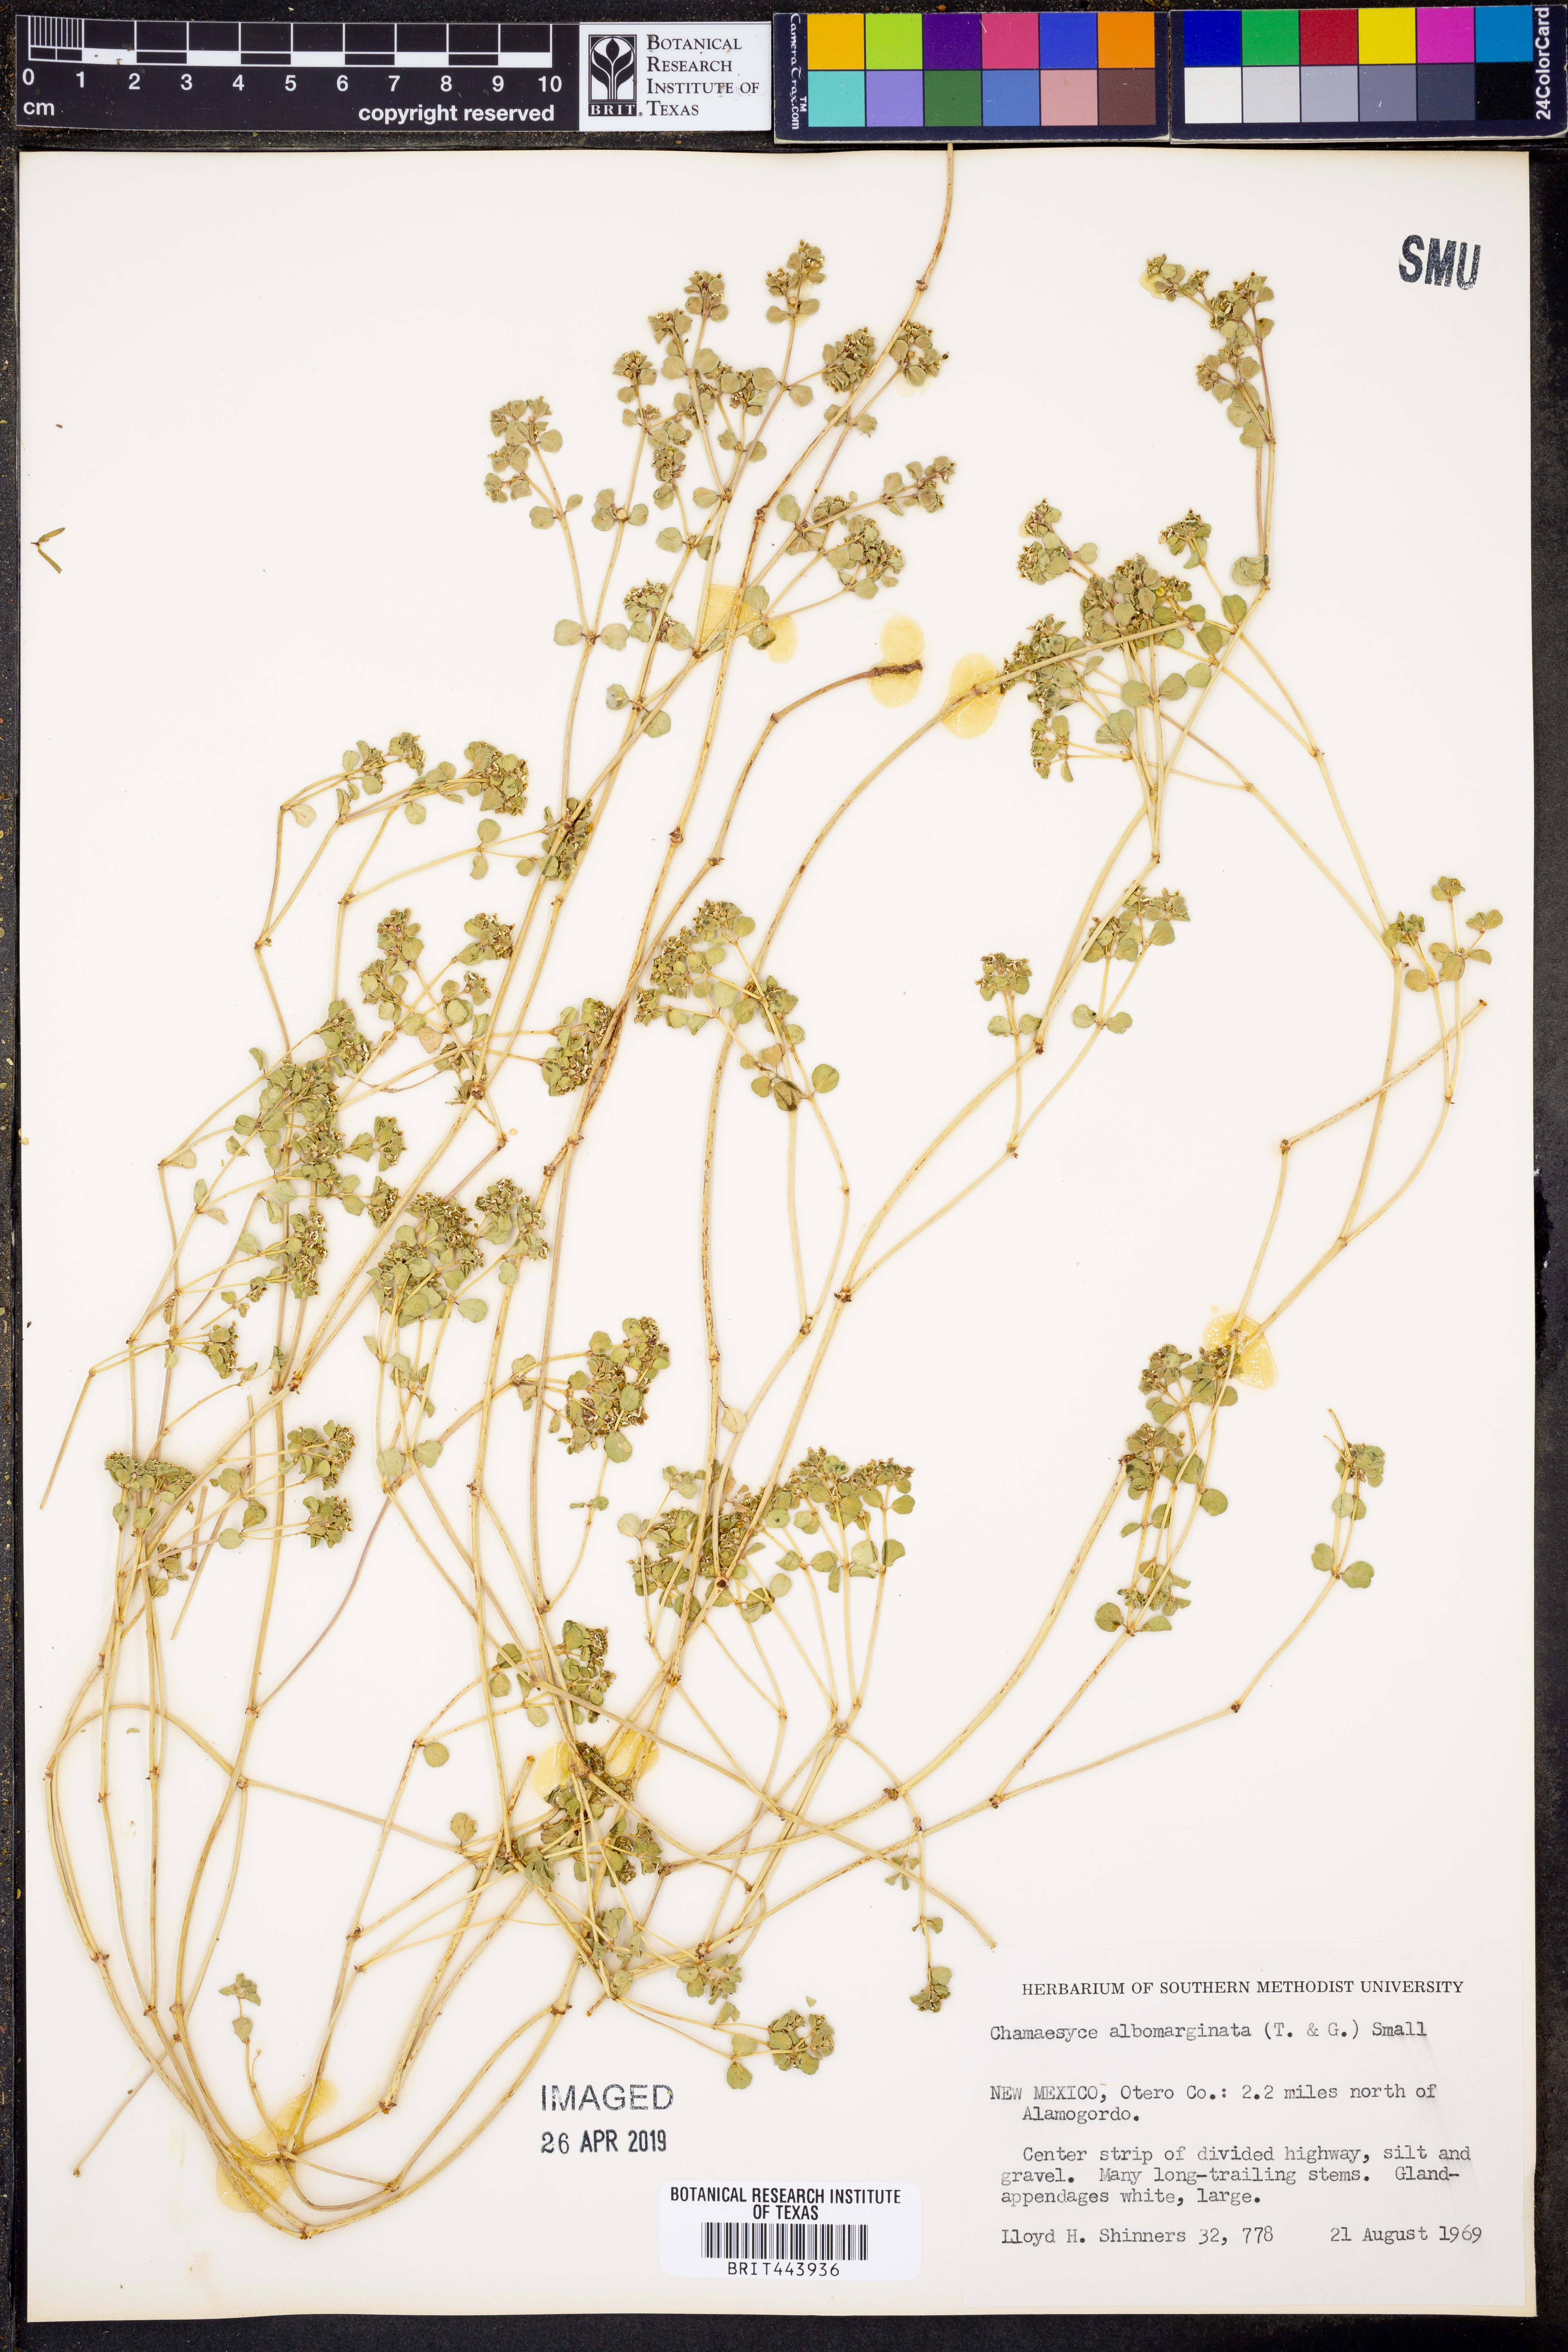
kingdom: Plantae
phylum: Tracheophyta
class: Magnoliopsida
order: Malpighiales
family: Euphorbiaceae
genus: Euphorbia
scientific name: Euphorbia albomarginata
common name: Whitemargin sandmat
